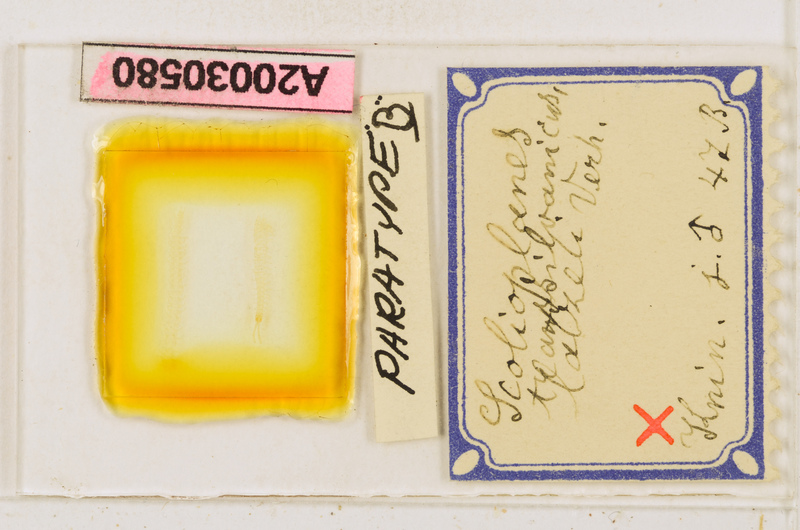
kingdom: Animalia
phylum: Arthropoda
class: Chilopoda
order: Geophilomorpha
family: Linotaeniidae
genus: Strigamia
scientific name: Strigamia transsilvanica
